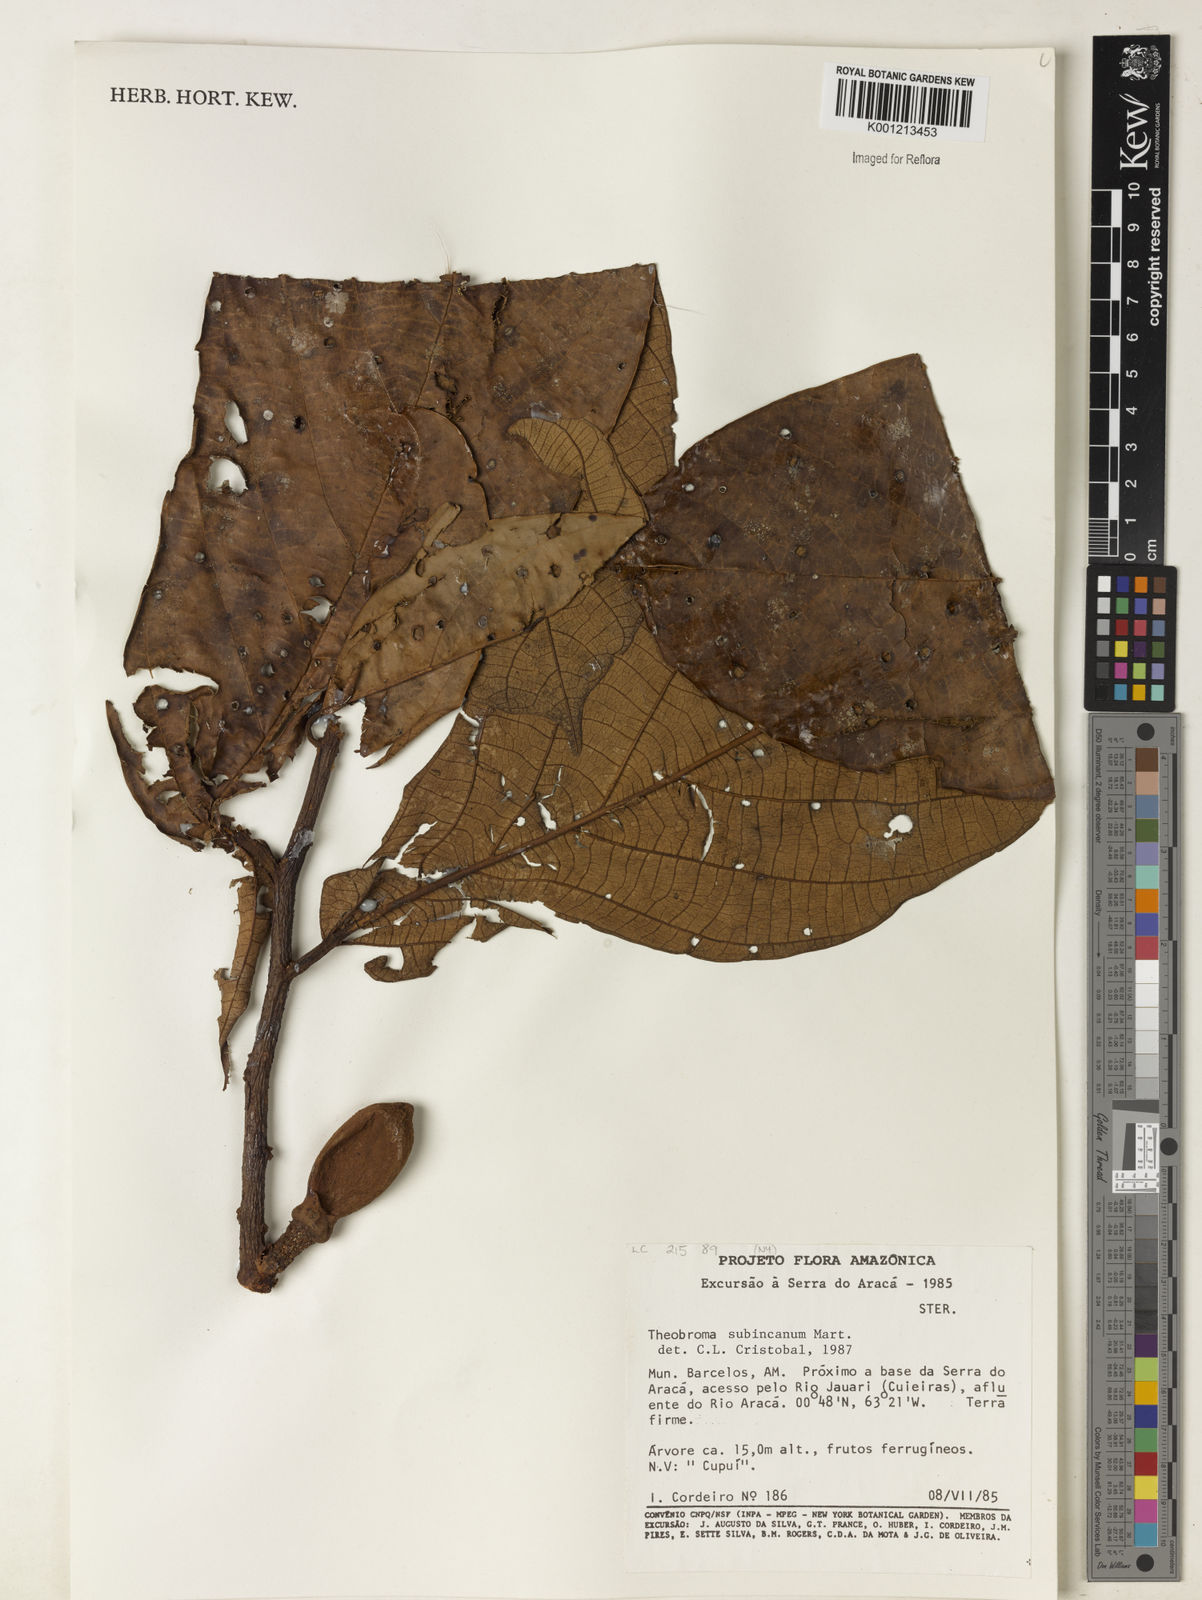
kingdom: Plantae
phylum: Tracheophyta
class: Magnoliopsida
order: Malvales
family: Malvaceae
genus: Theobroma
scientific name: Theobroma subincanum
